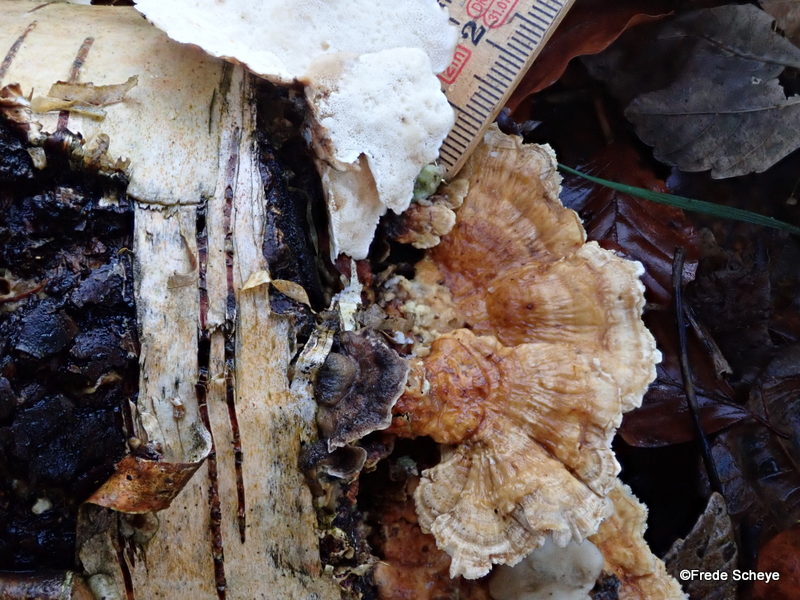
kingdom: Fungi
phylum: Basidiomycota
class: Agaricomycetes
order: Polyporales
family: Polyporaceae
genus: Trametes
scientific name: Trametes ochracea
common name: bæltet læderporesvamp
